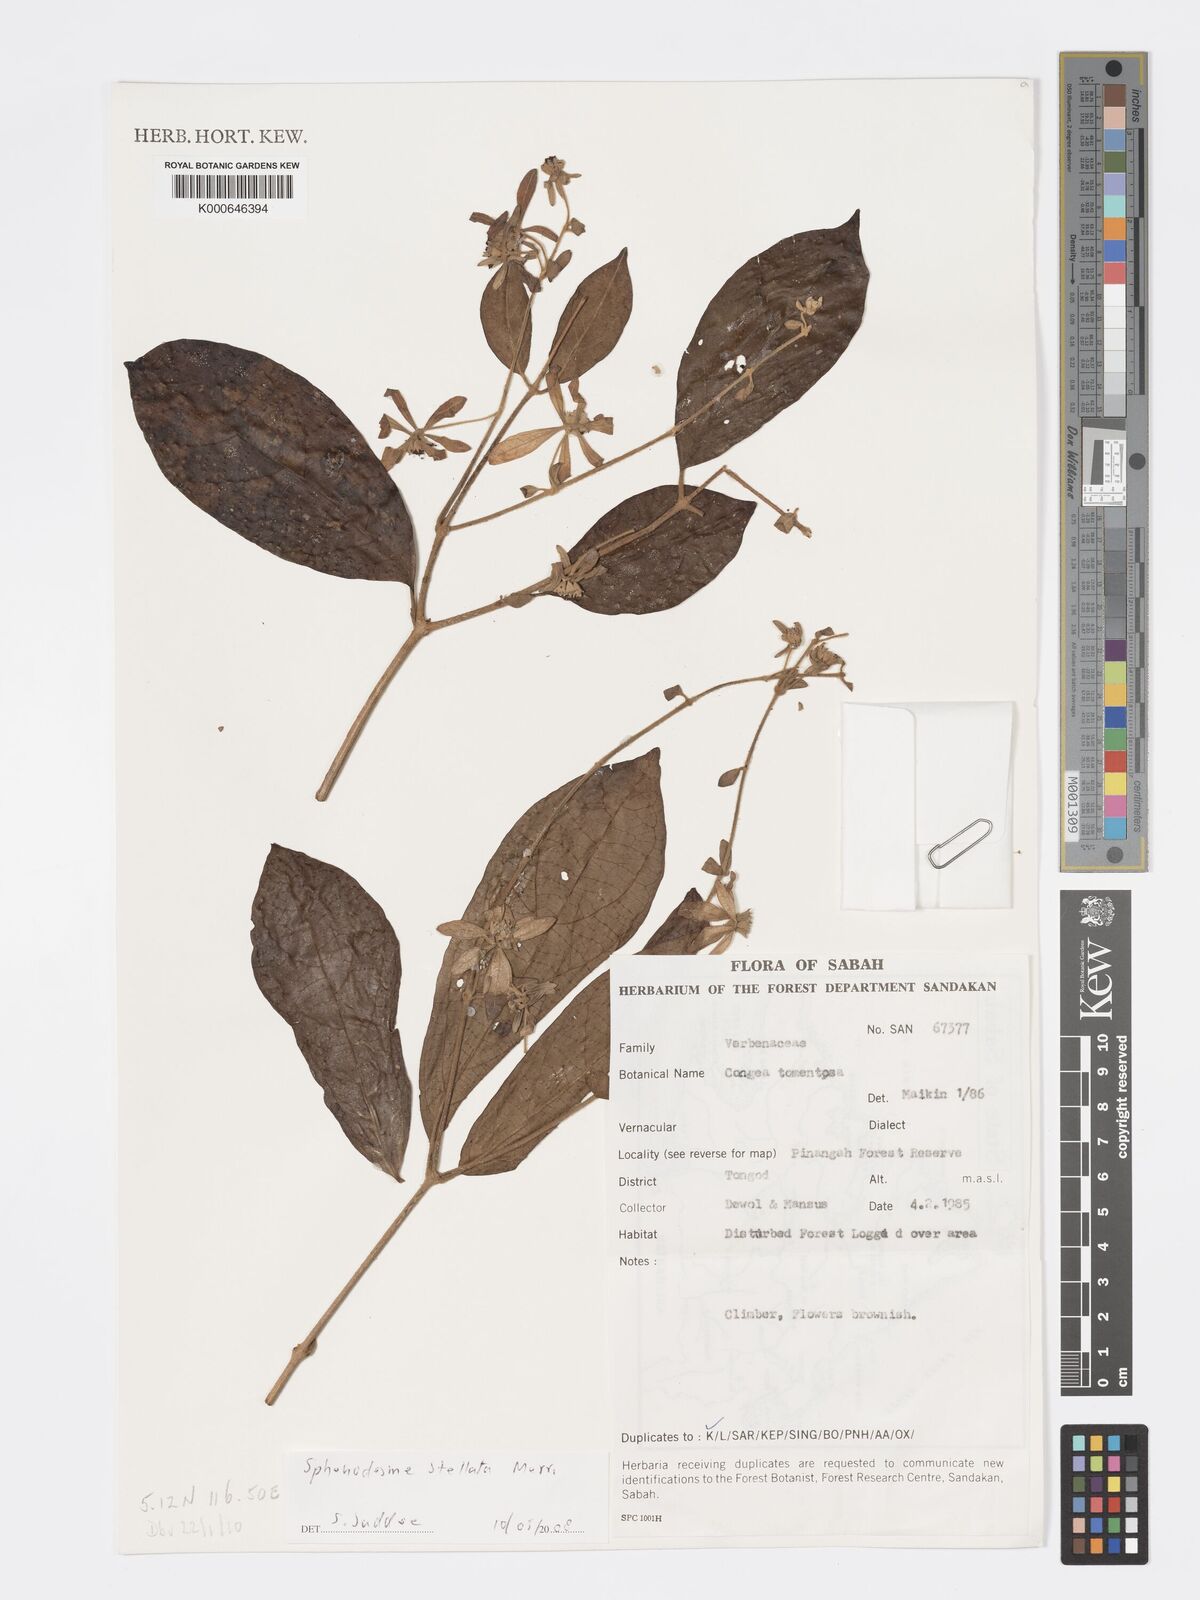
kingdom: Plantae
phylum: Tracheophyta
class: Magnoliopsida
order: Lamiales
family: Lamiaceae
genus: Sphenodesme
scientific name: Sphenodesme stellata
